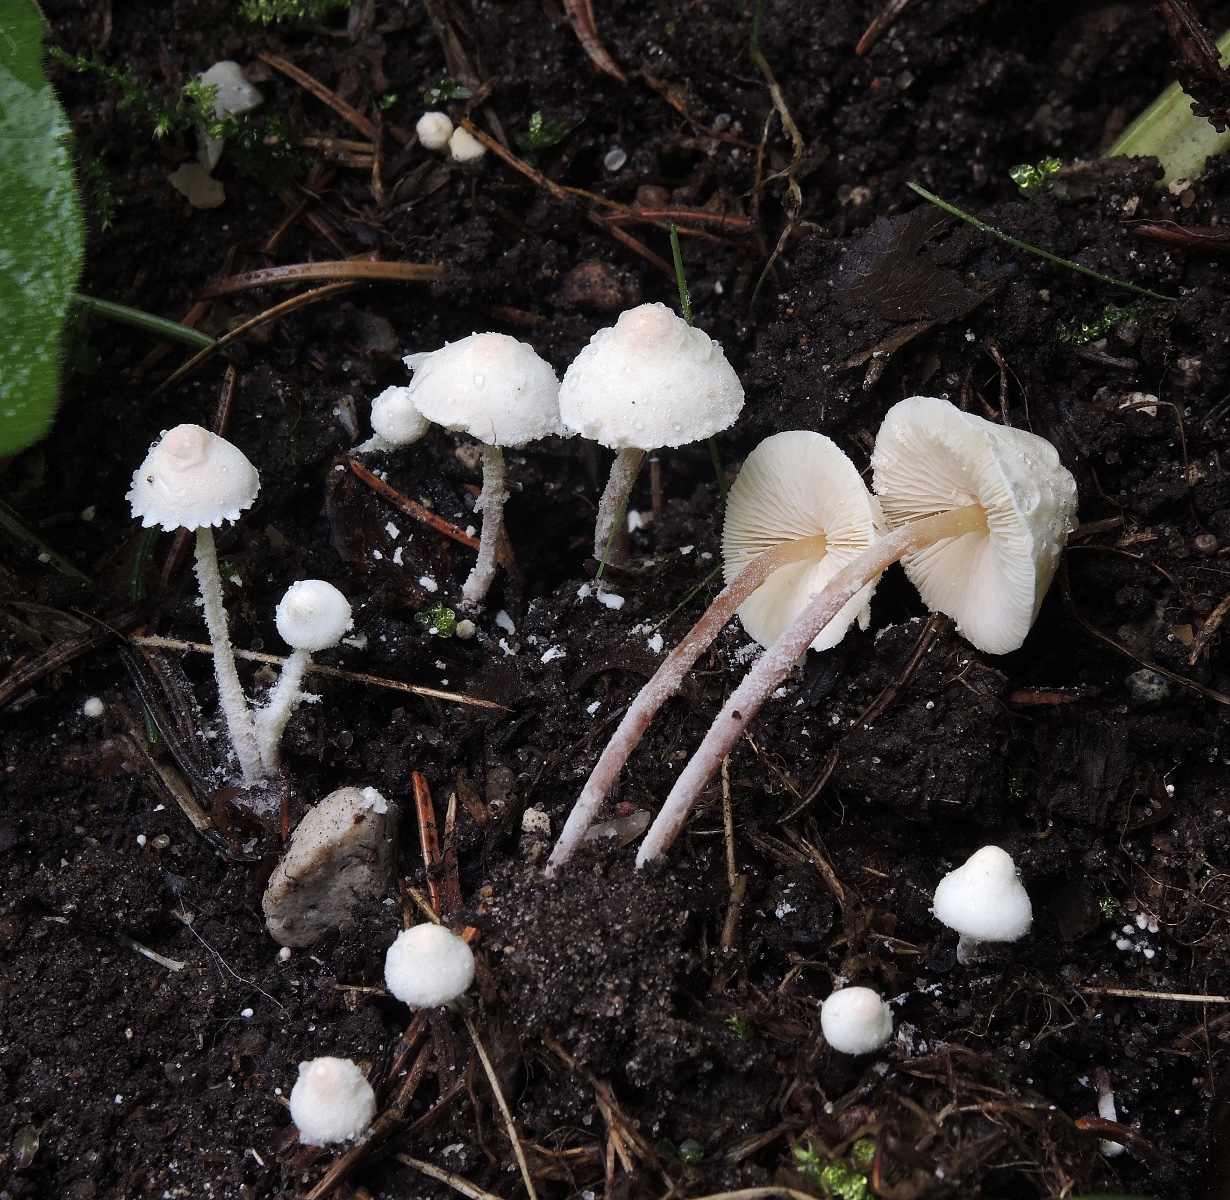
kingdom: Fungi
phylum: Basidiomycota
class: Agaricomycetes
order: Agaricales
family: Agaricaceae
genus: Cystolepiota
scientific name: Cystolepiota seminuda
